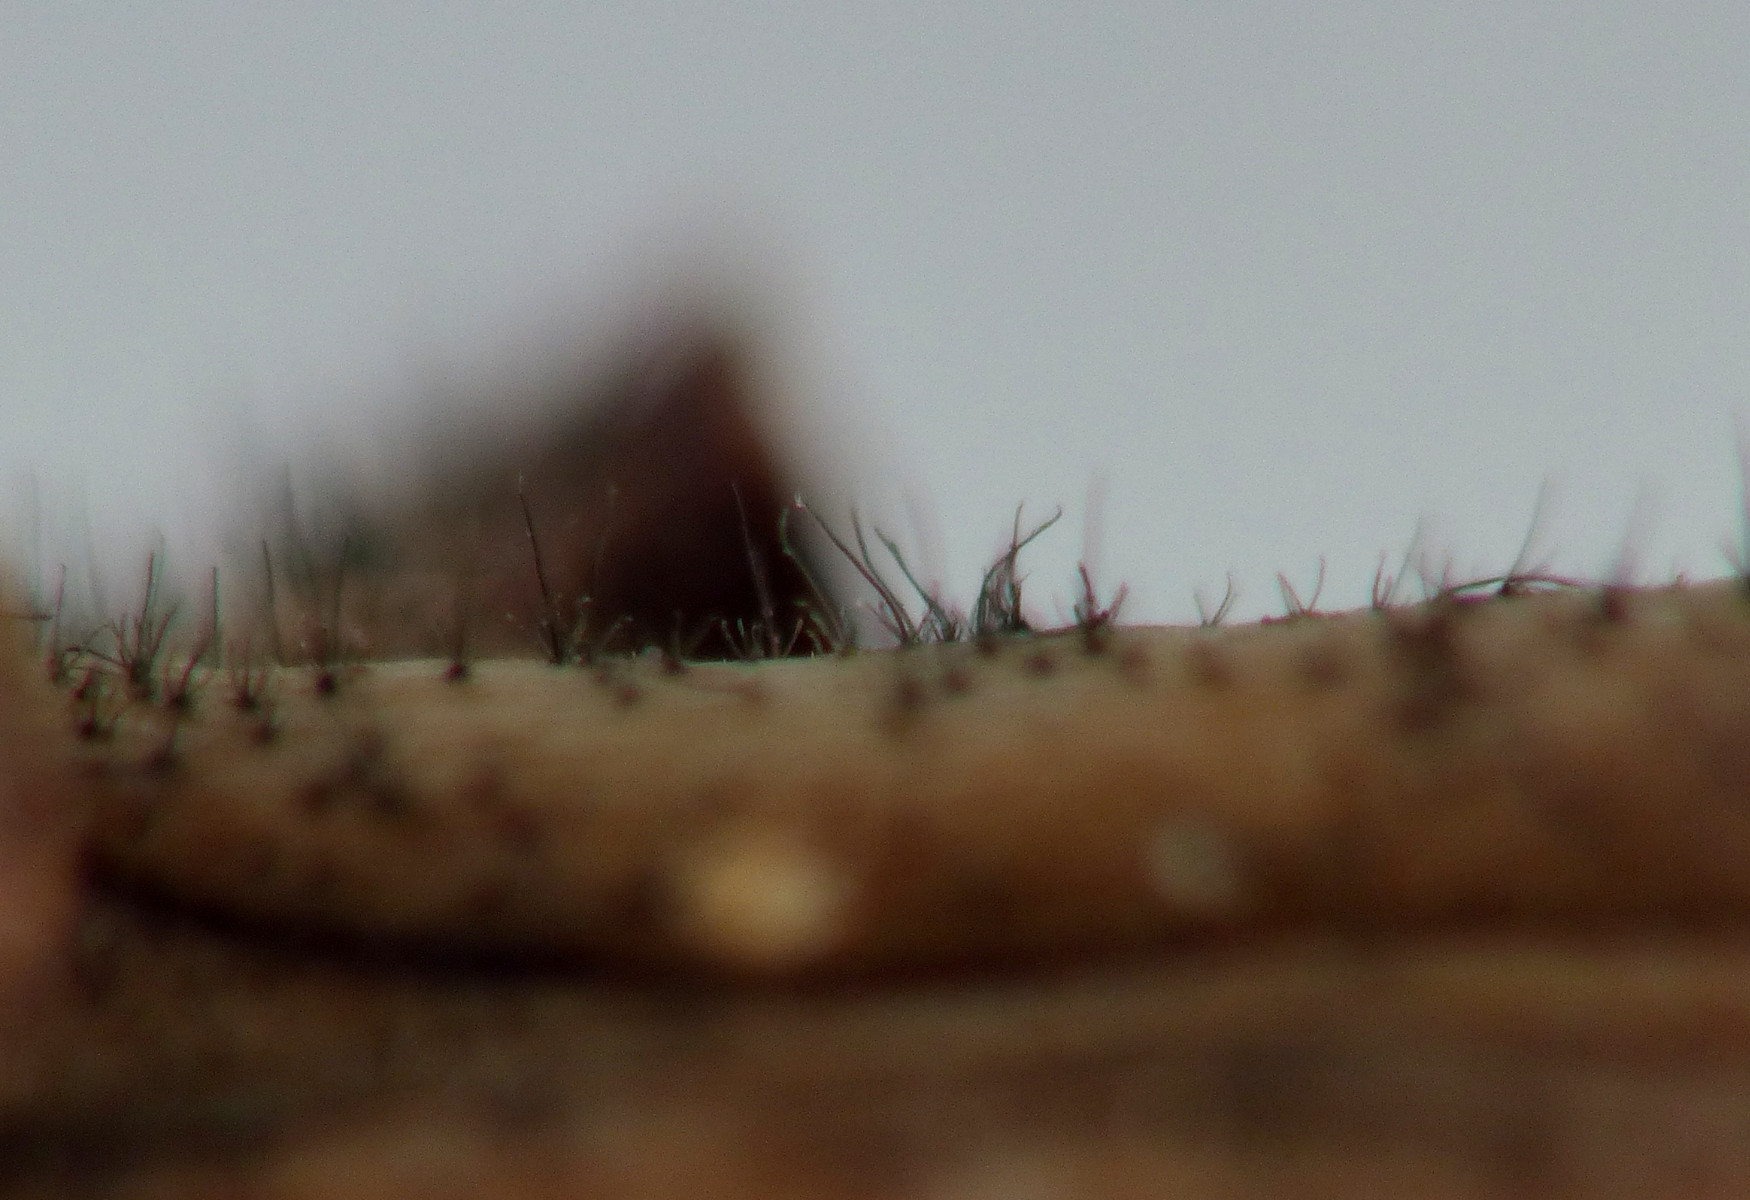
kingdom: Fungi
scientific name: Fungi
